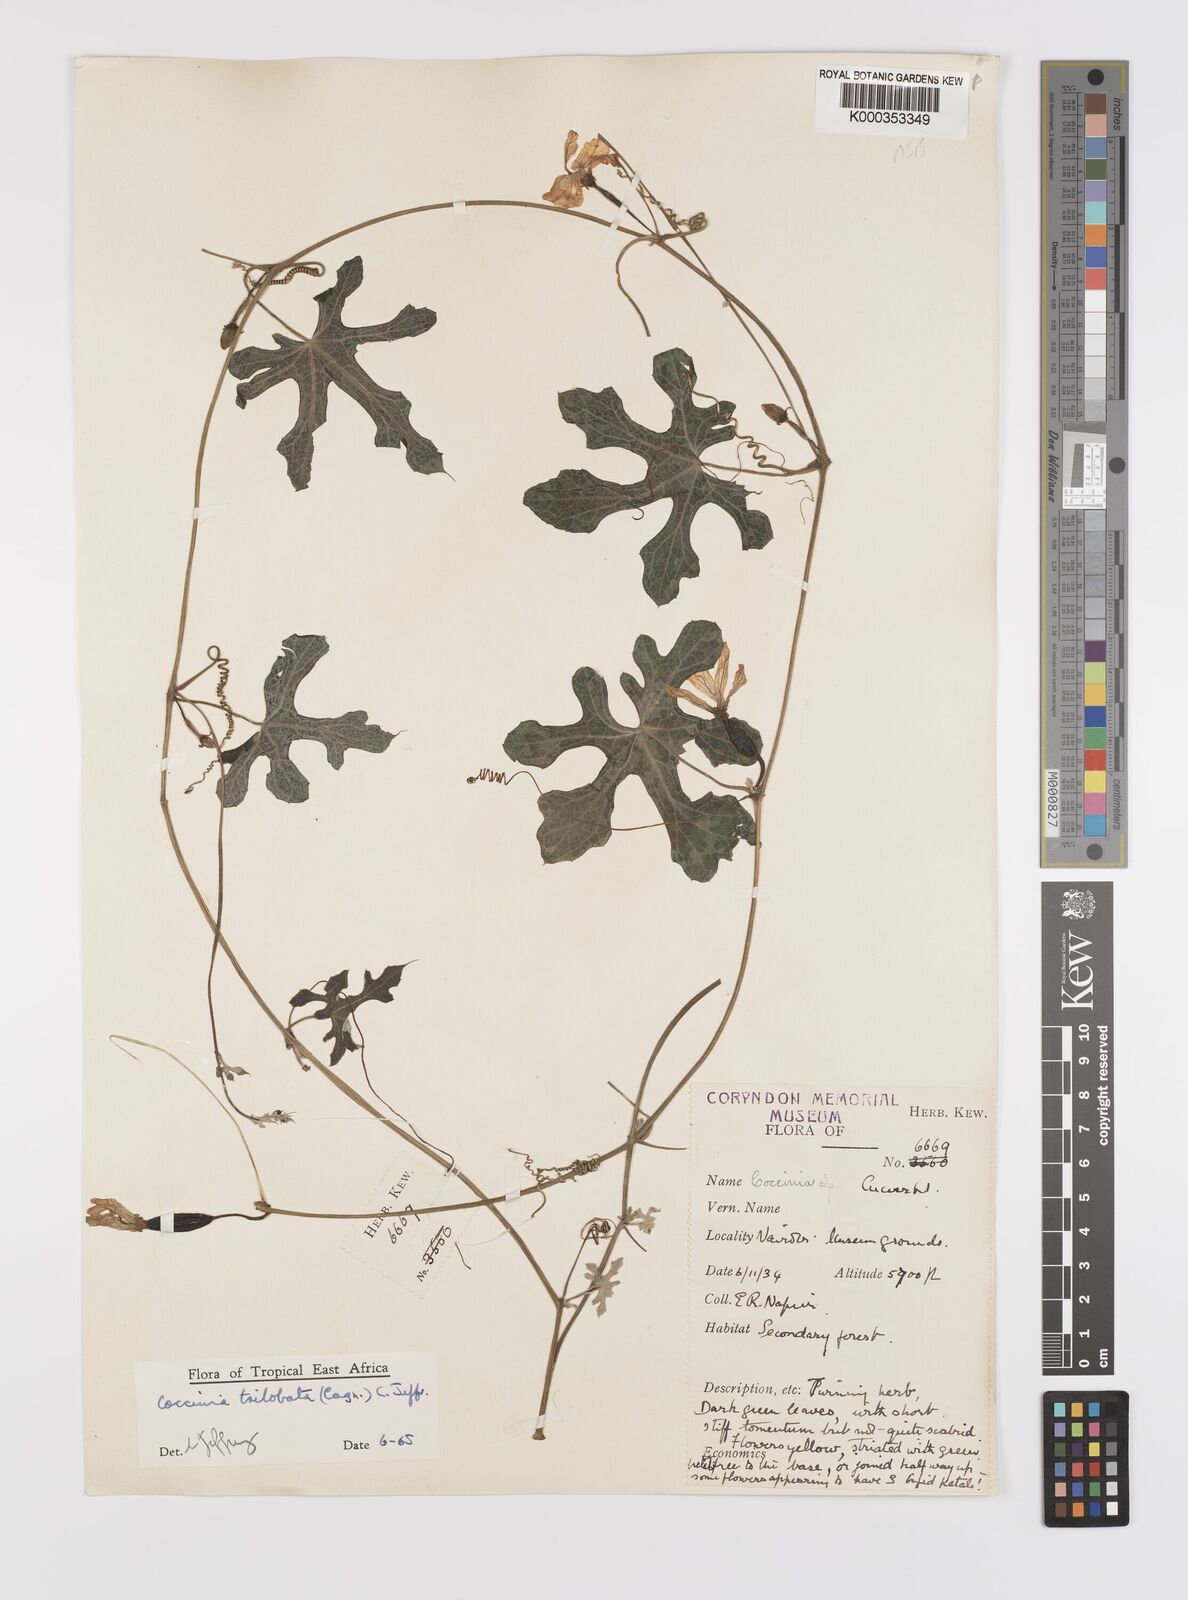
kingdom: Plantae
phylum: Tracheophyta
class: Magnoliopsida
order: Cucurbitales
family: Cucurbitaceae
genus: Coccinia
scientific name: Coccinia trilobata
